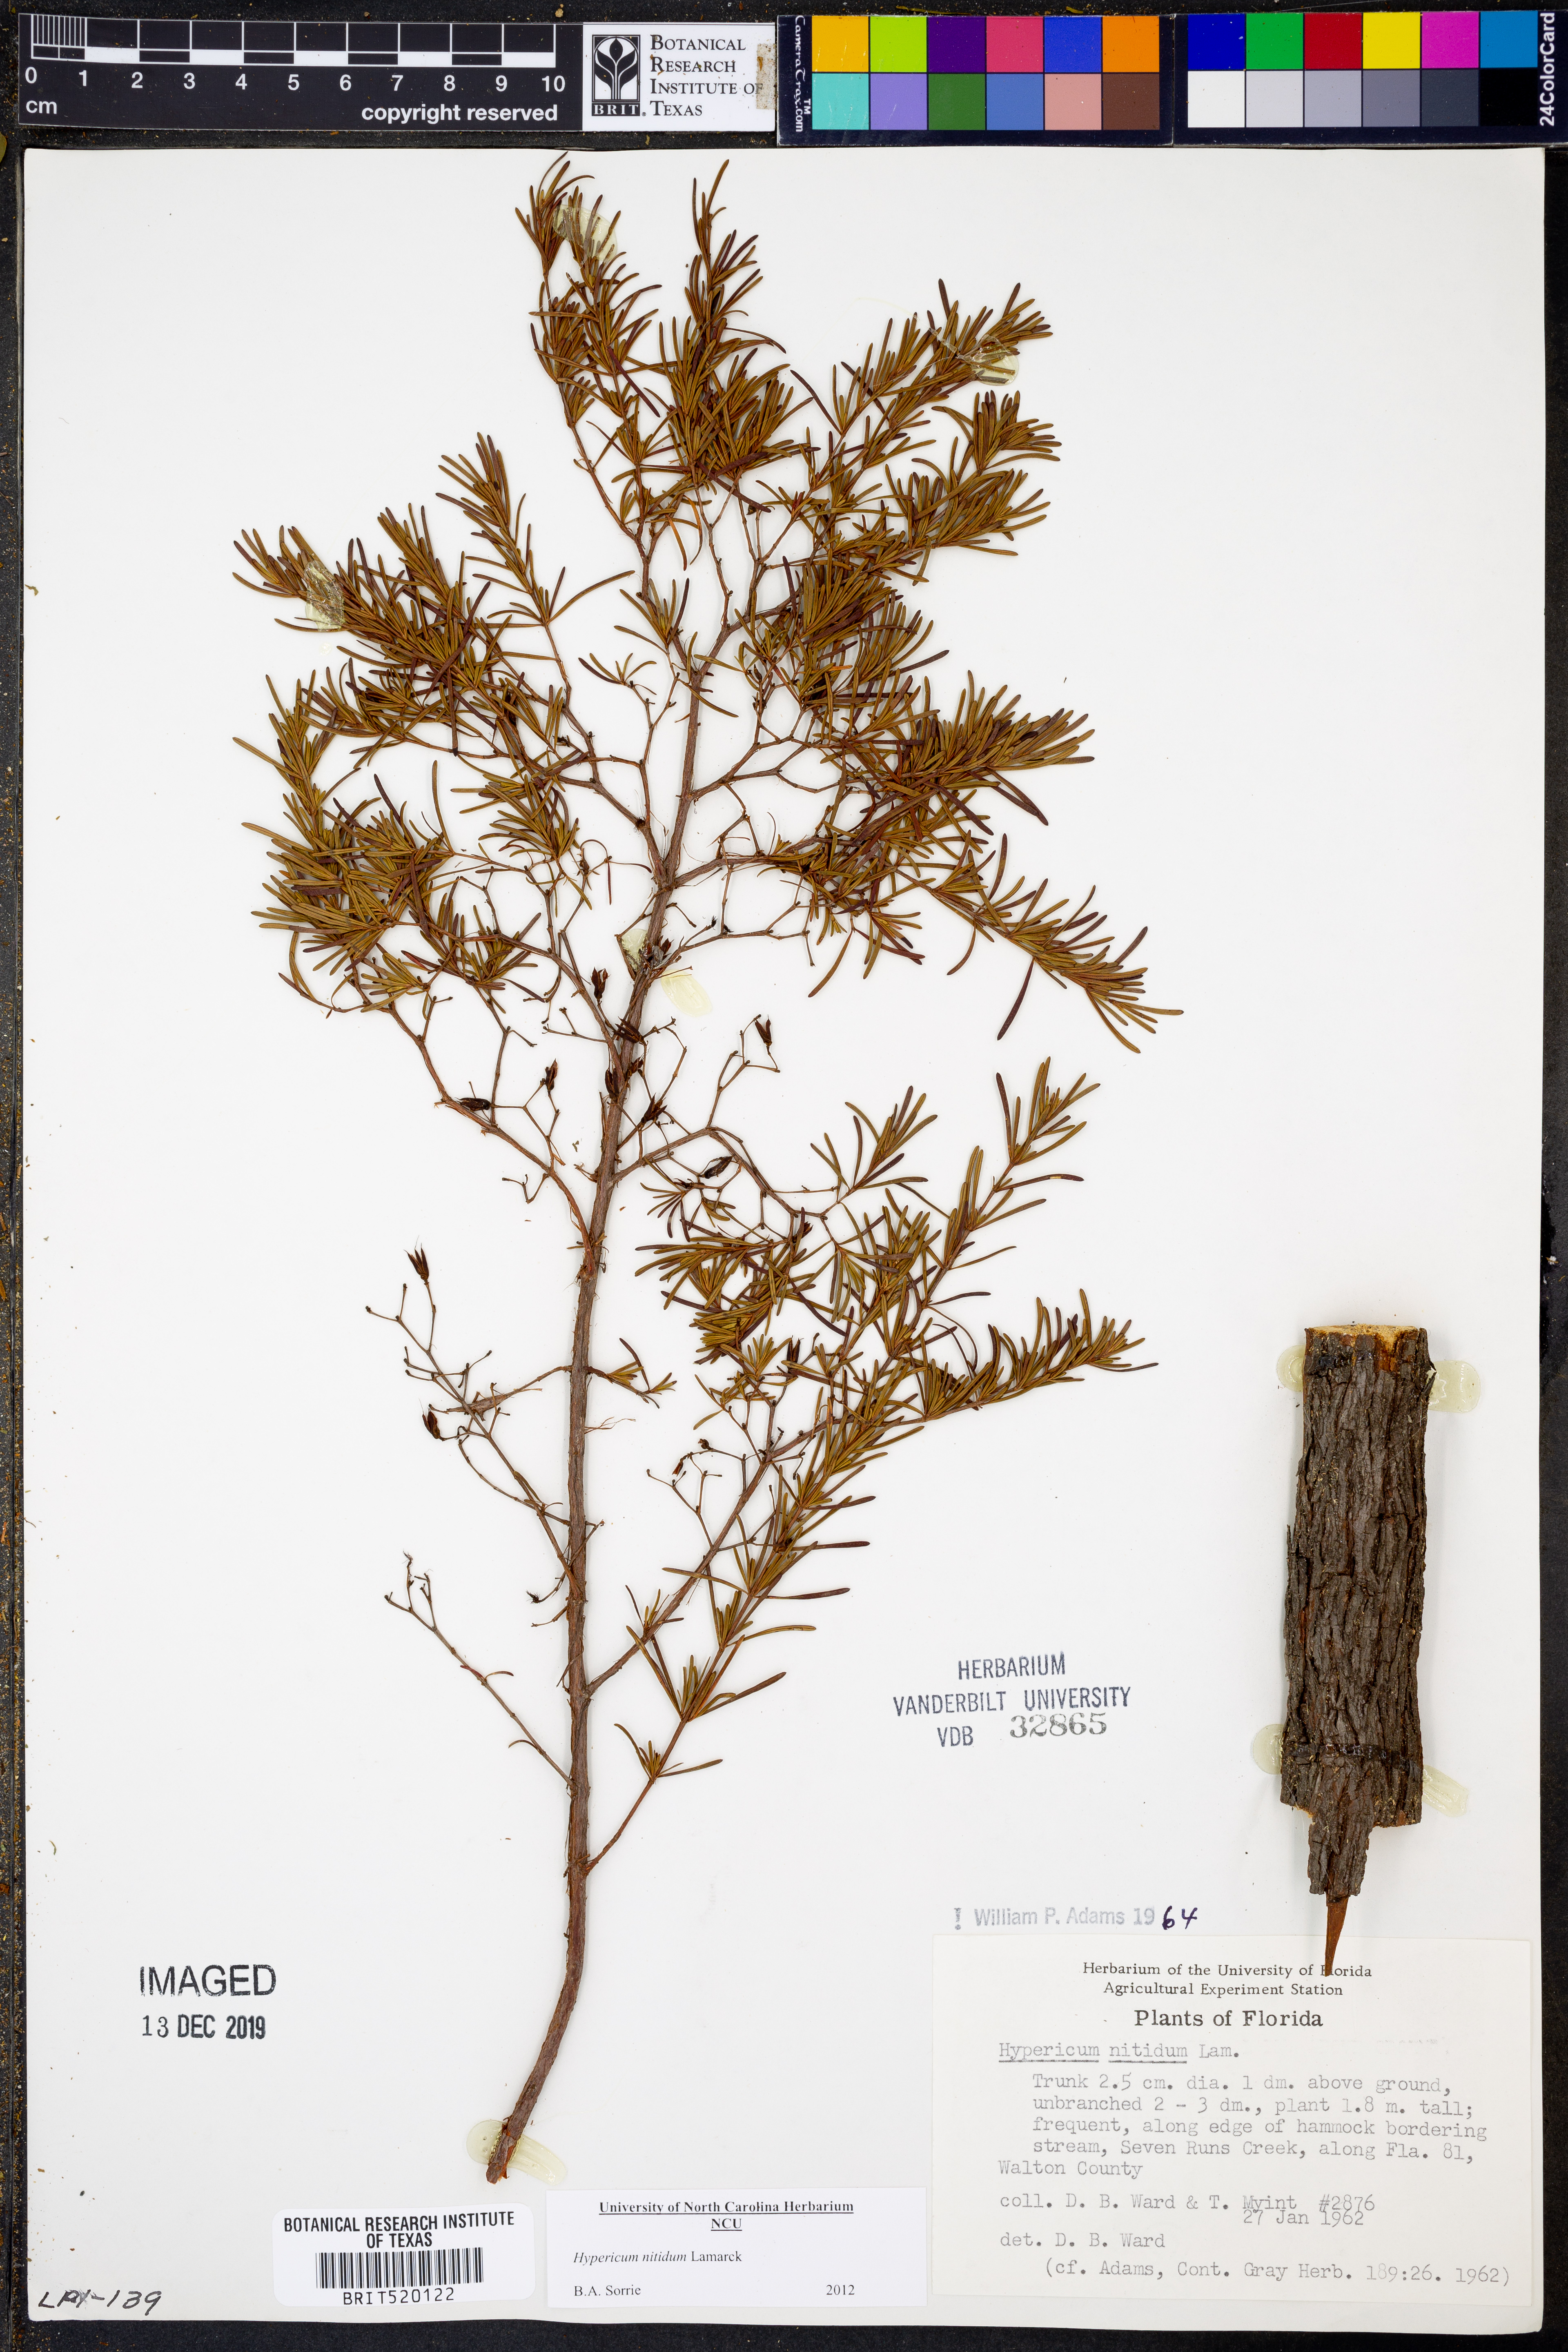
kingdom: Plantae
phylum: Tracheophyta
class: Magnoliopsida
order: Malpighiales
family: Hypericaceae
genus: Hypericum
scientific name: Hypericum nitidum
